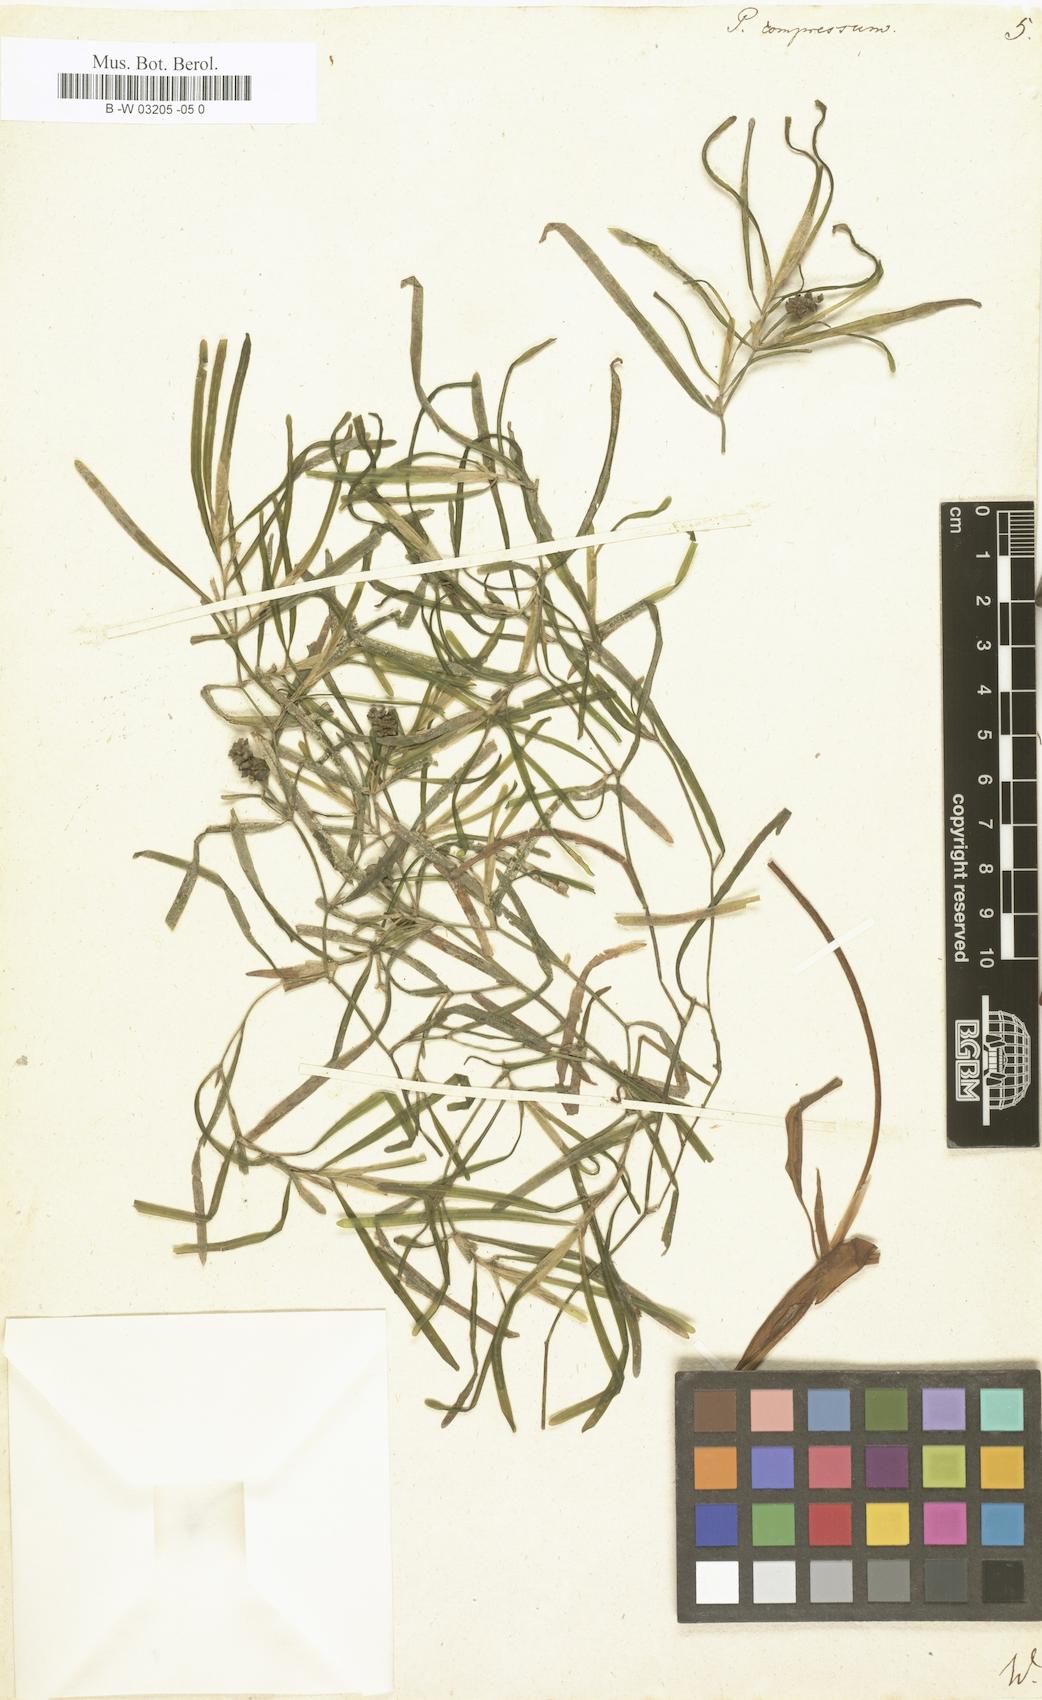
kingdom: Plantae
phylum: Tracheophyta
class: Liliopsida
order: Alismatales
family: Potamogetonaceae
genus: Potamogeton
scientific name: Potamogeton compressus
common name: Grass-wrack pondweed
